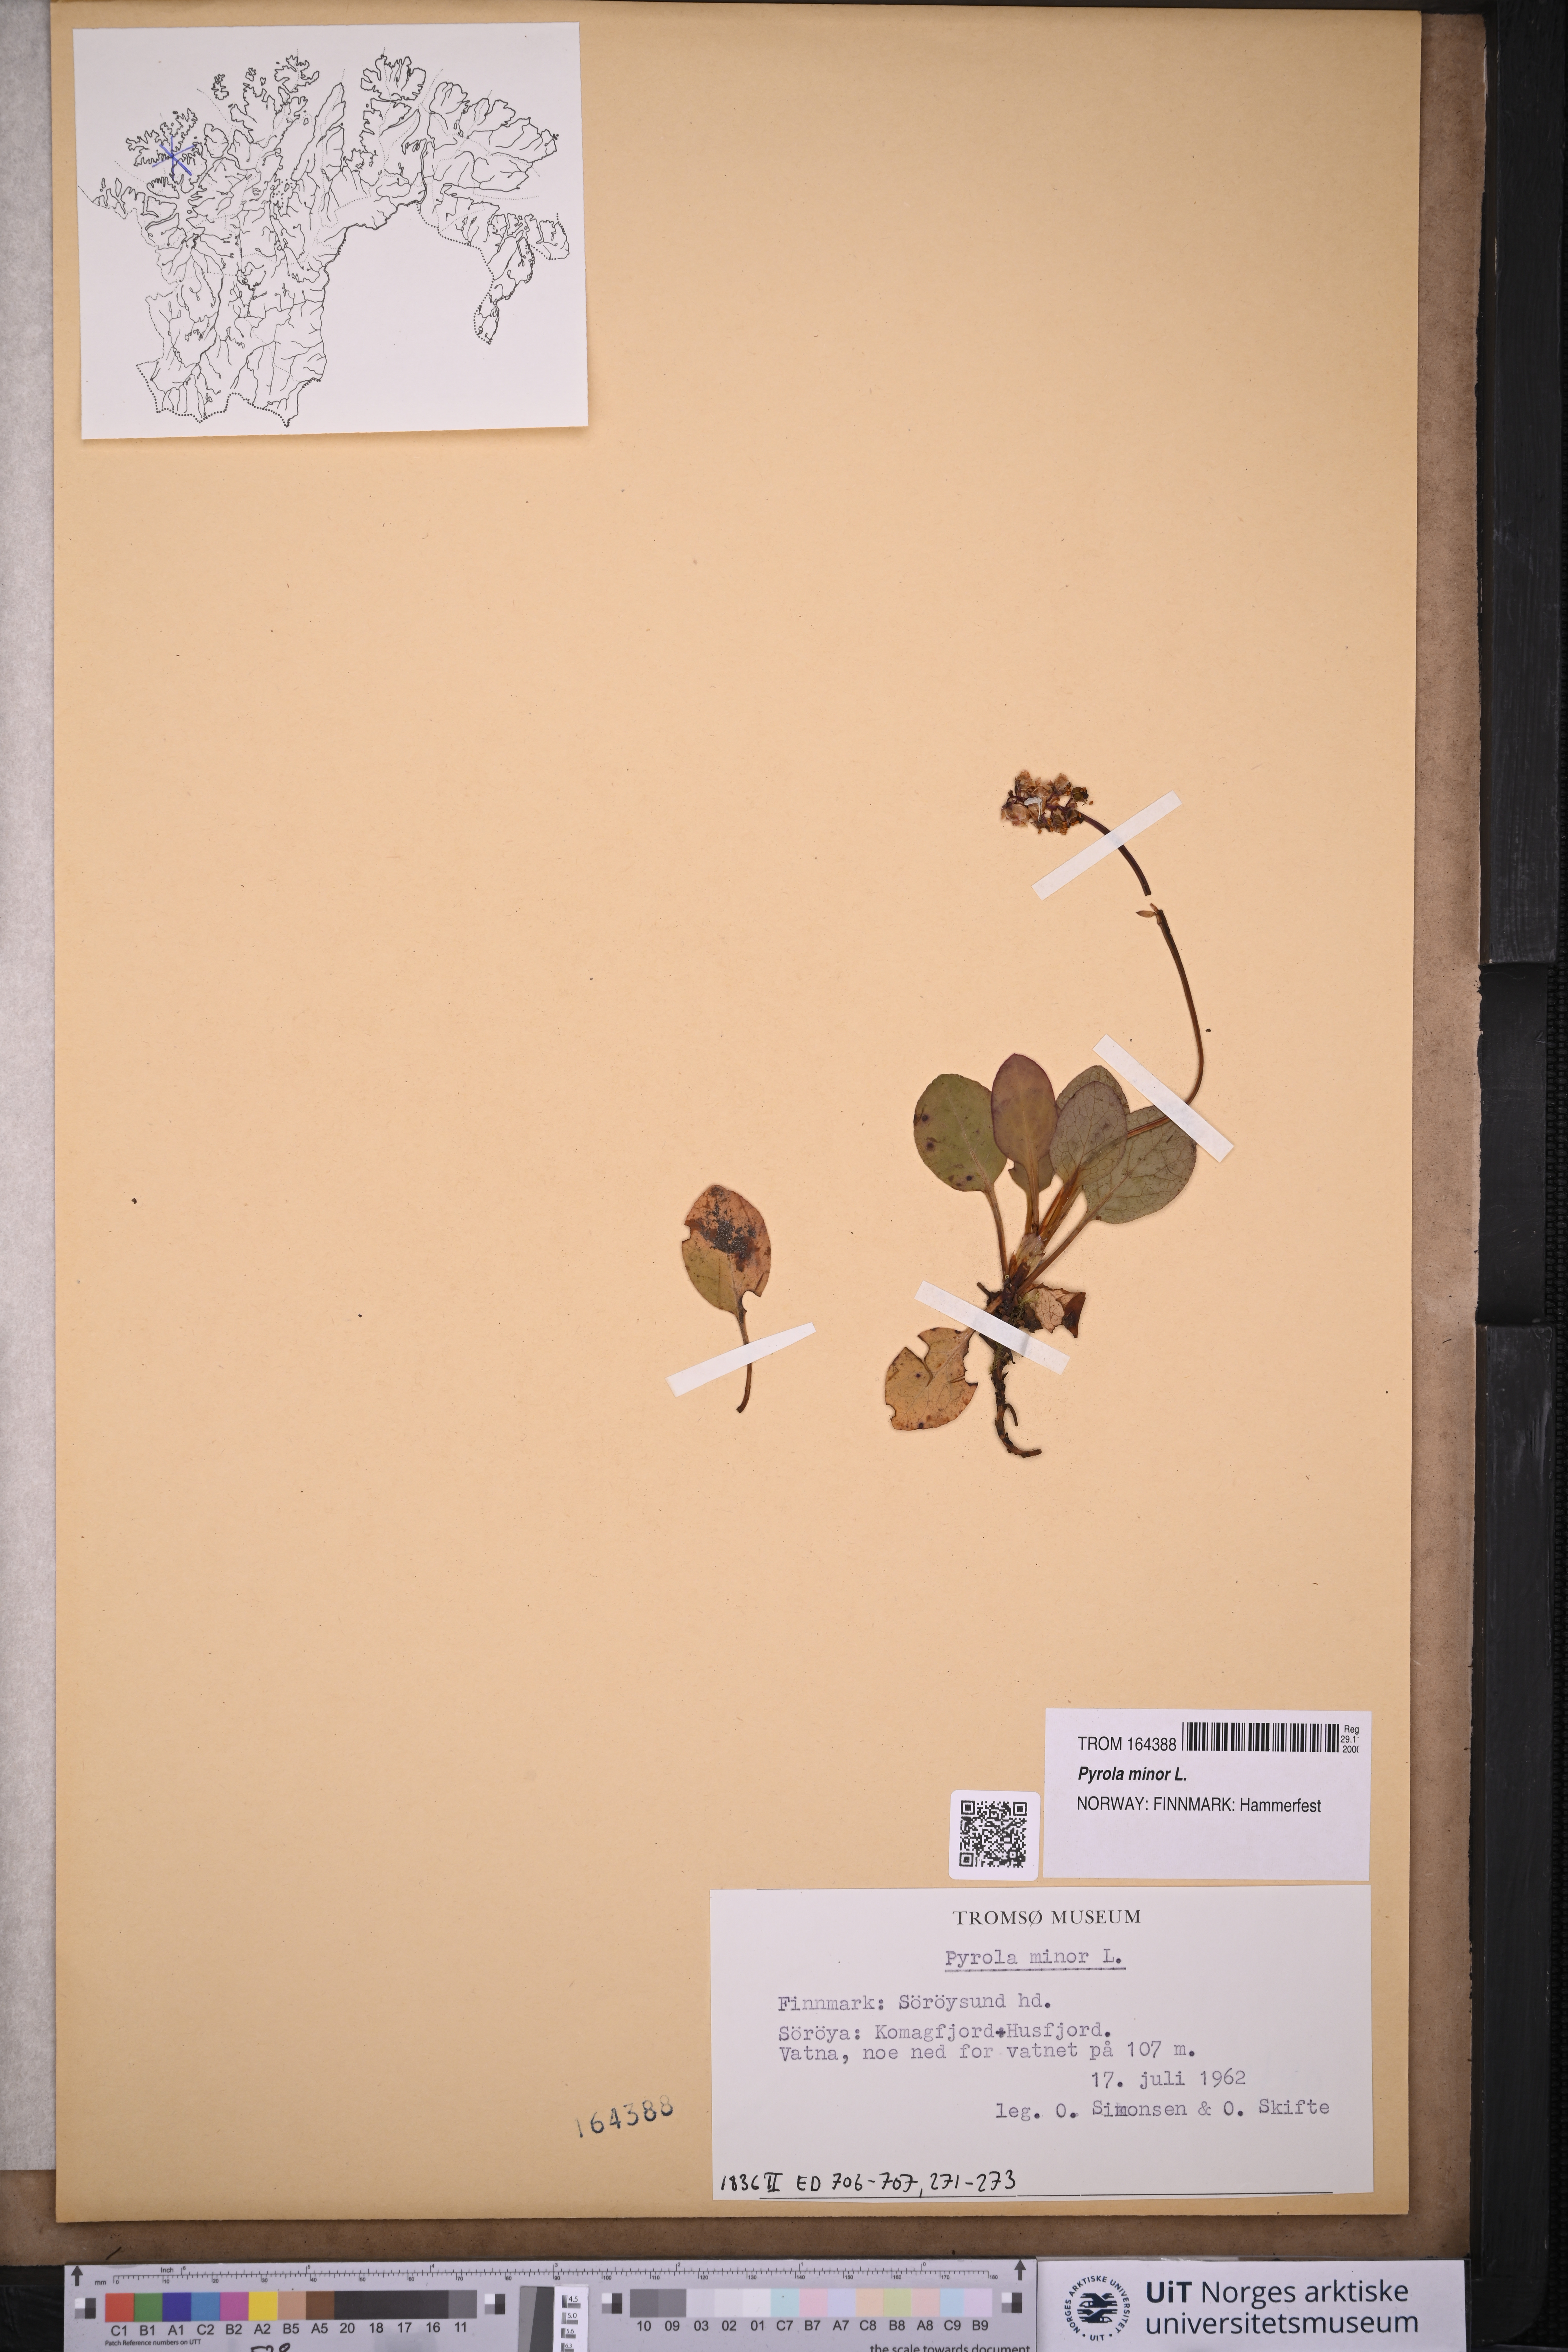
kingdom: Plantae
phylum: Tracheophyta
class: Magnoliopsida
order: Ericales
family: Ericaceae
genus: Pyrola
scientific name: Pyrola minor
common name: Common wintergreen
